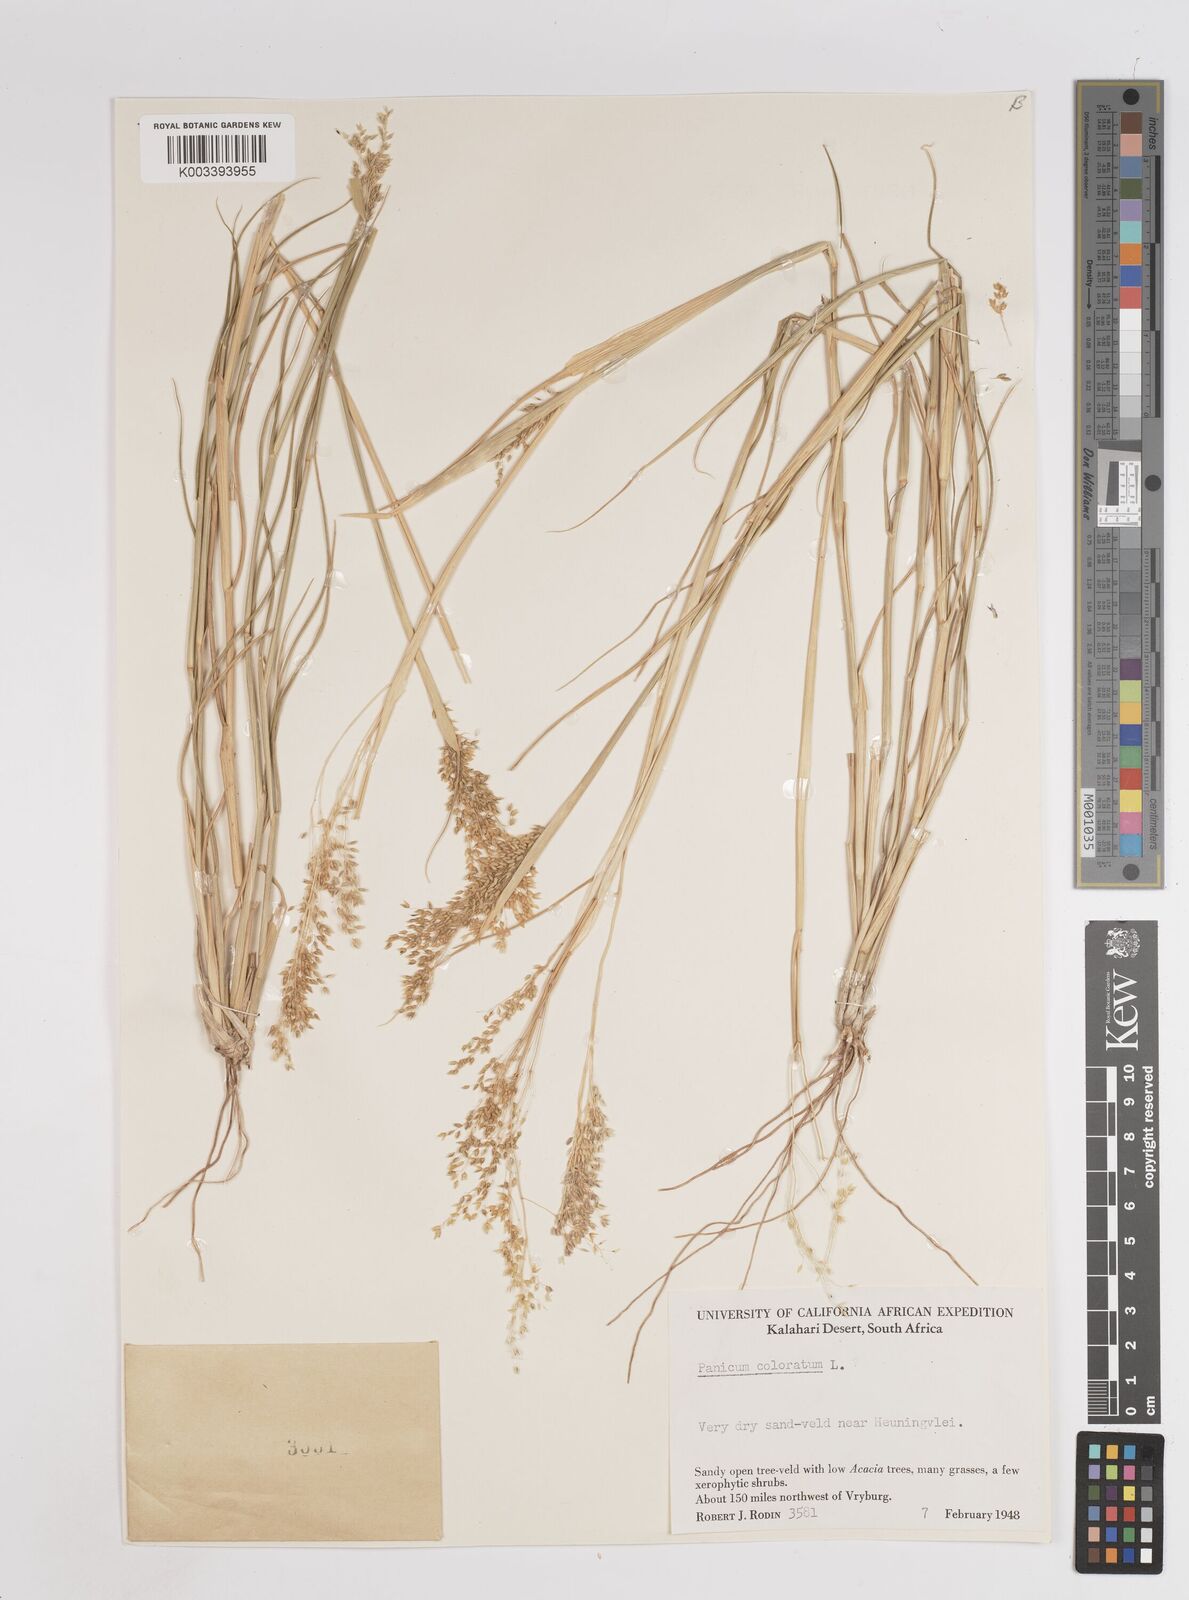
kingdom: Plantae
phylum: Tracheophyta
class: Liliopsida
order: Poales
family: Poaceae
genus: Panicum
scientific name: Panicum coloratum
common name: Kleingrass
